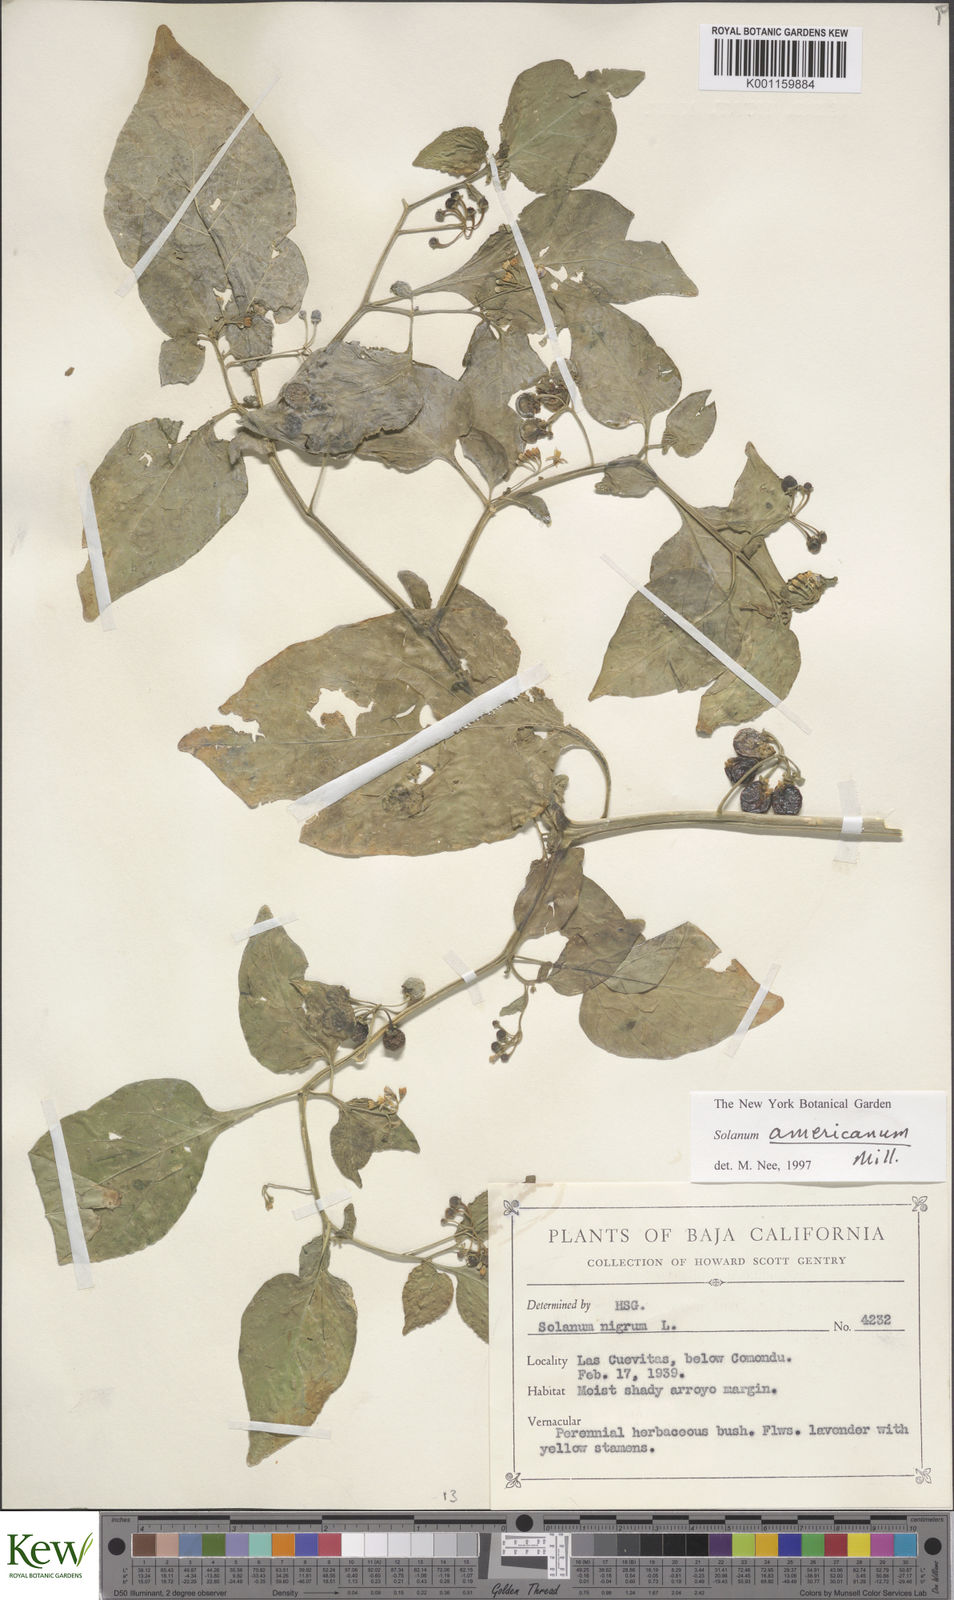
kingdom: Plantae
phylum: Tracheophyta
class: Magnoliopsida
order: Solanales
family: Solanaceae
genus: Solanum
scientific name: Solanum americanum
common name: American black nightshade
